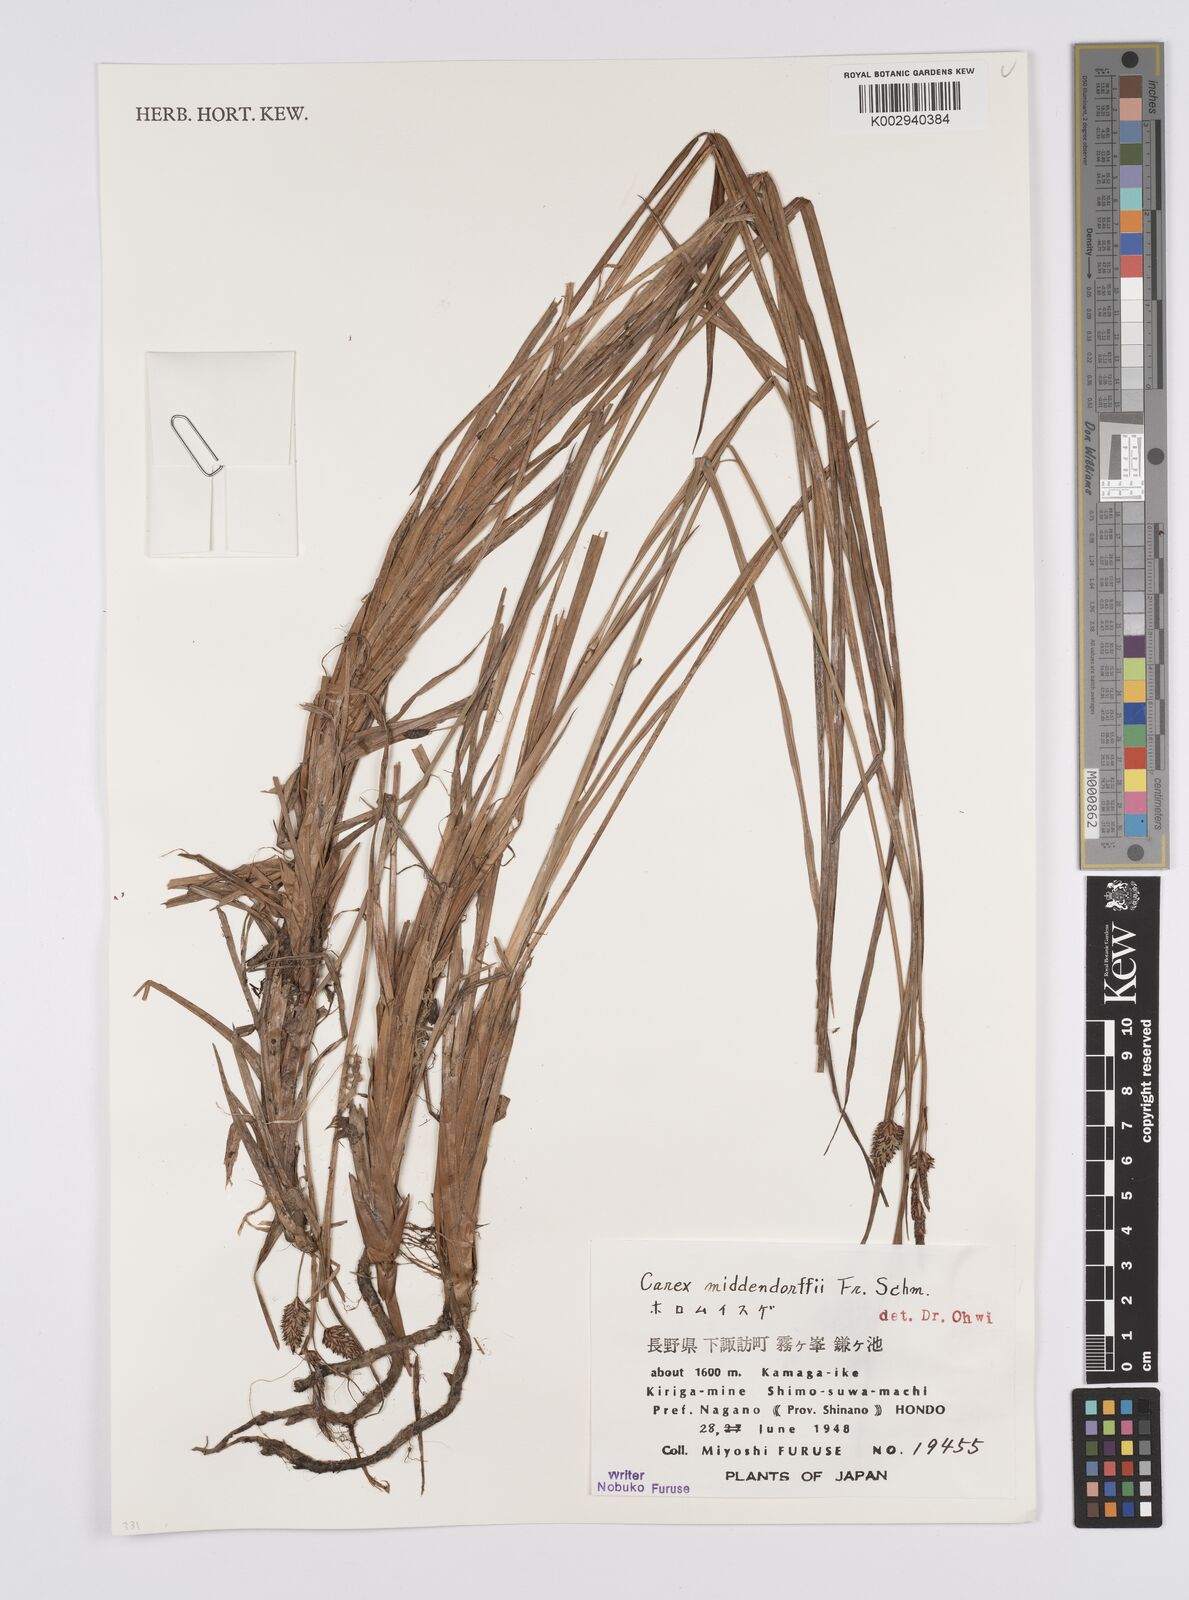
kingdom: Plantae
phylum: Tracheophyta
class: Liliopsida
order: Poales
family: Cyperaceae
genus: Carex
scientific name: Carex middendorffii
